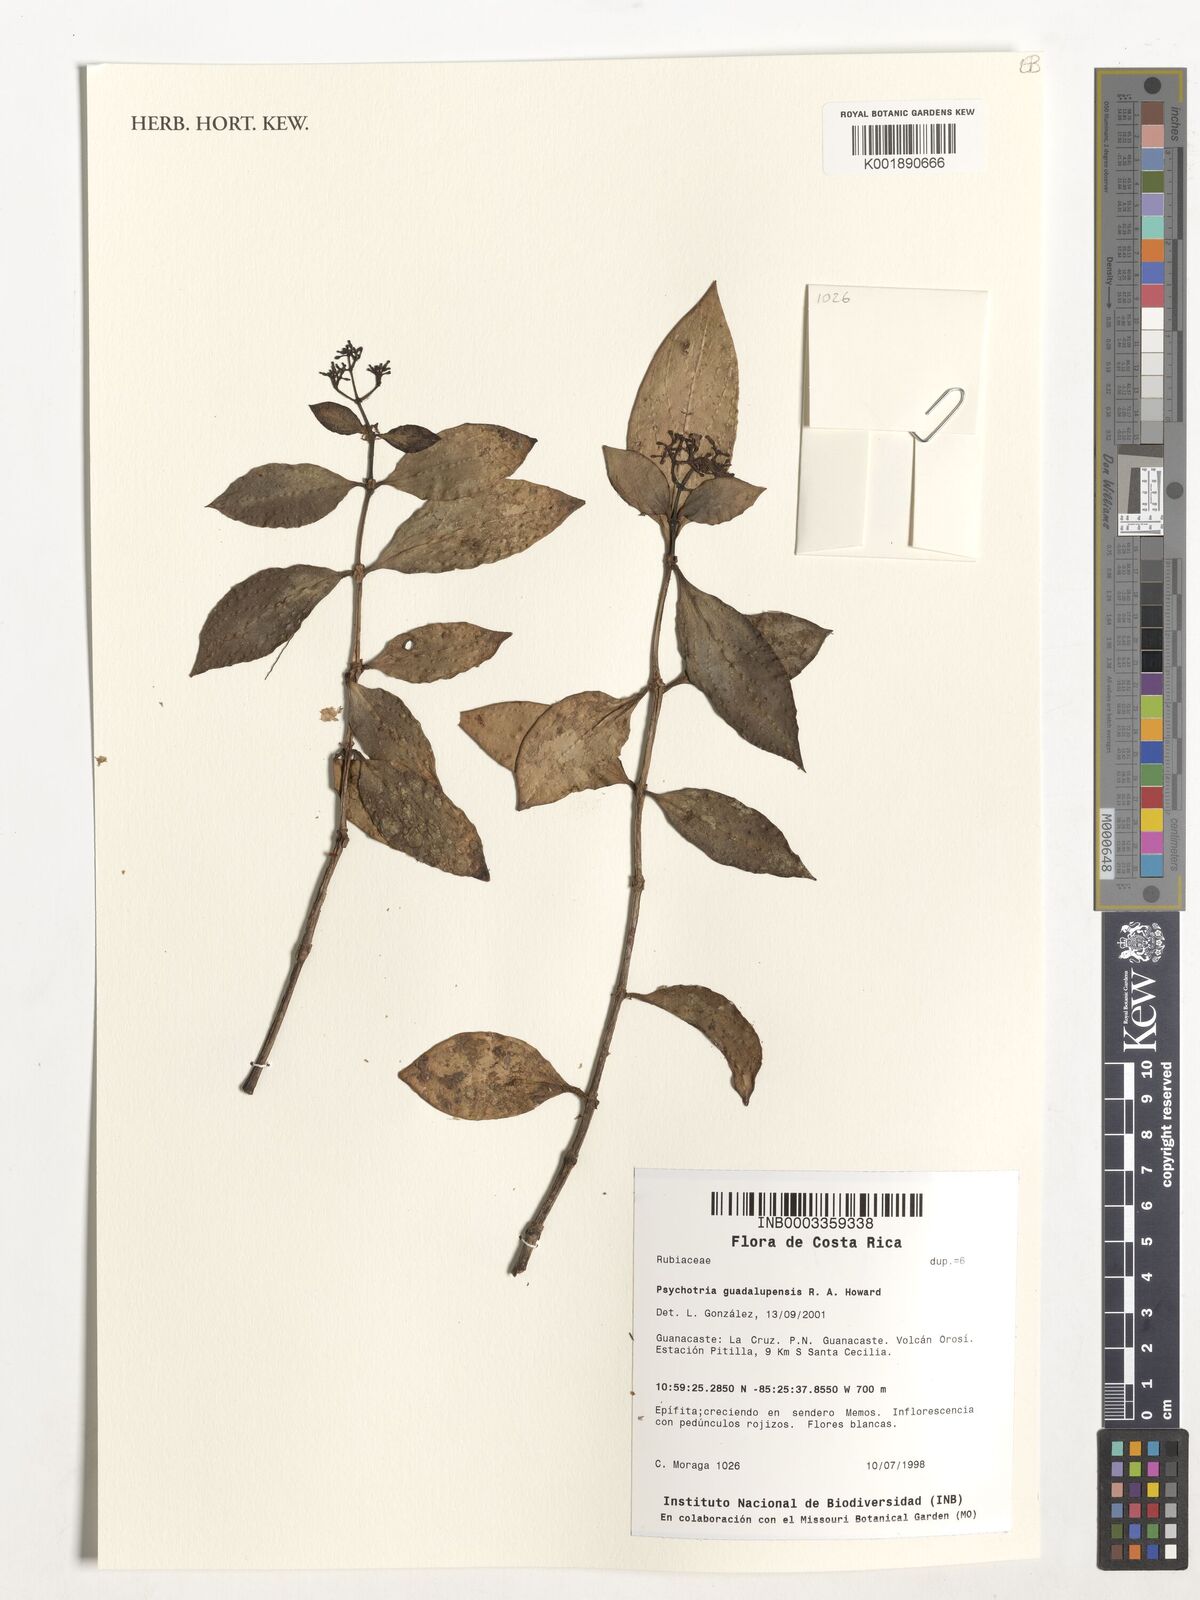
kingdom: Plantae
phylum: Tracheophyta
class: Magnoliopsida
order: Gentianales
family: Rubiaceae
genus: Notopleura
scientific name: Notopleura parasitica
